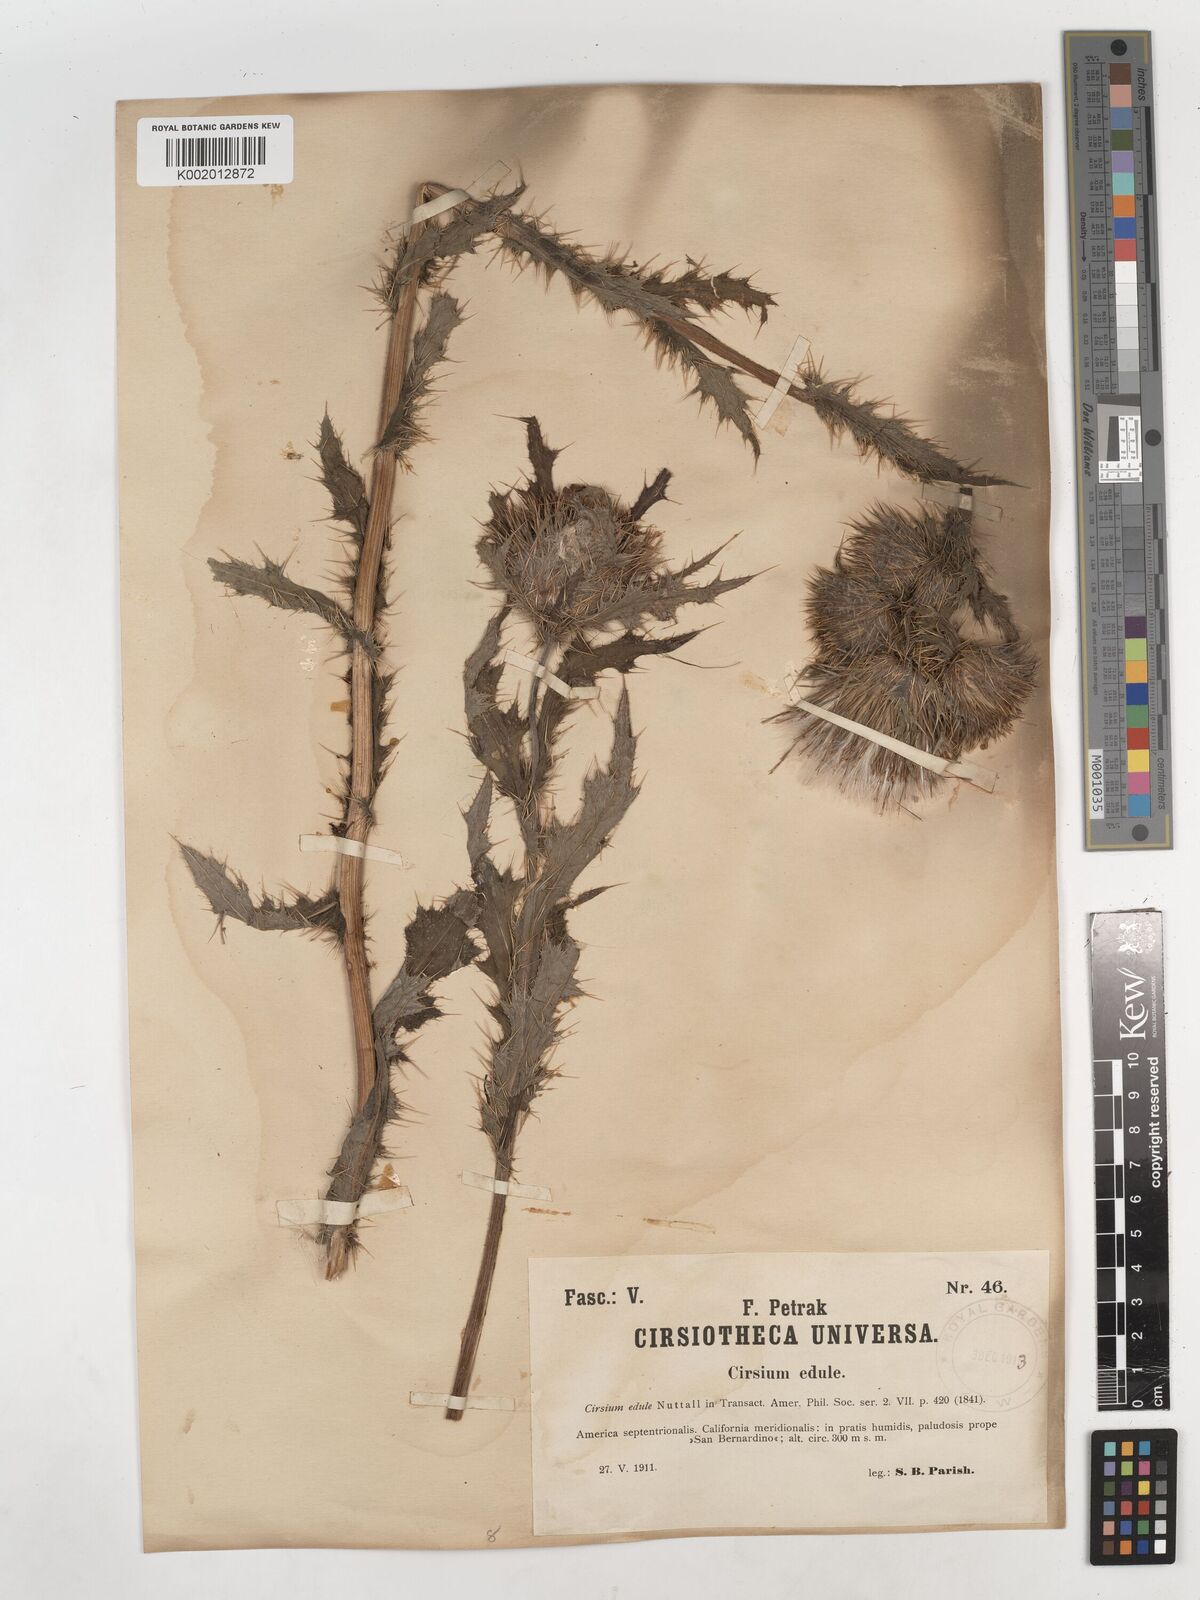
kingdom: Plantae
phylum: Tracheophyta
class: Magnoliopsida
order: Asterales
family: Asteraceae
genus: Cirsium
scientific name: Cirsium edule
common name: Indian thistle
